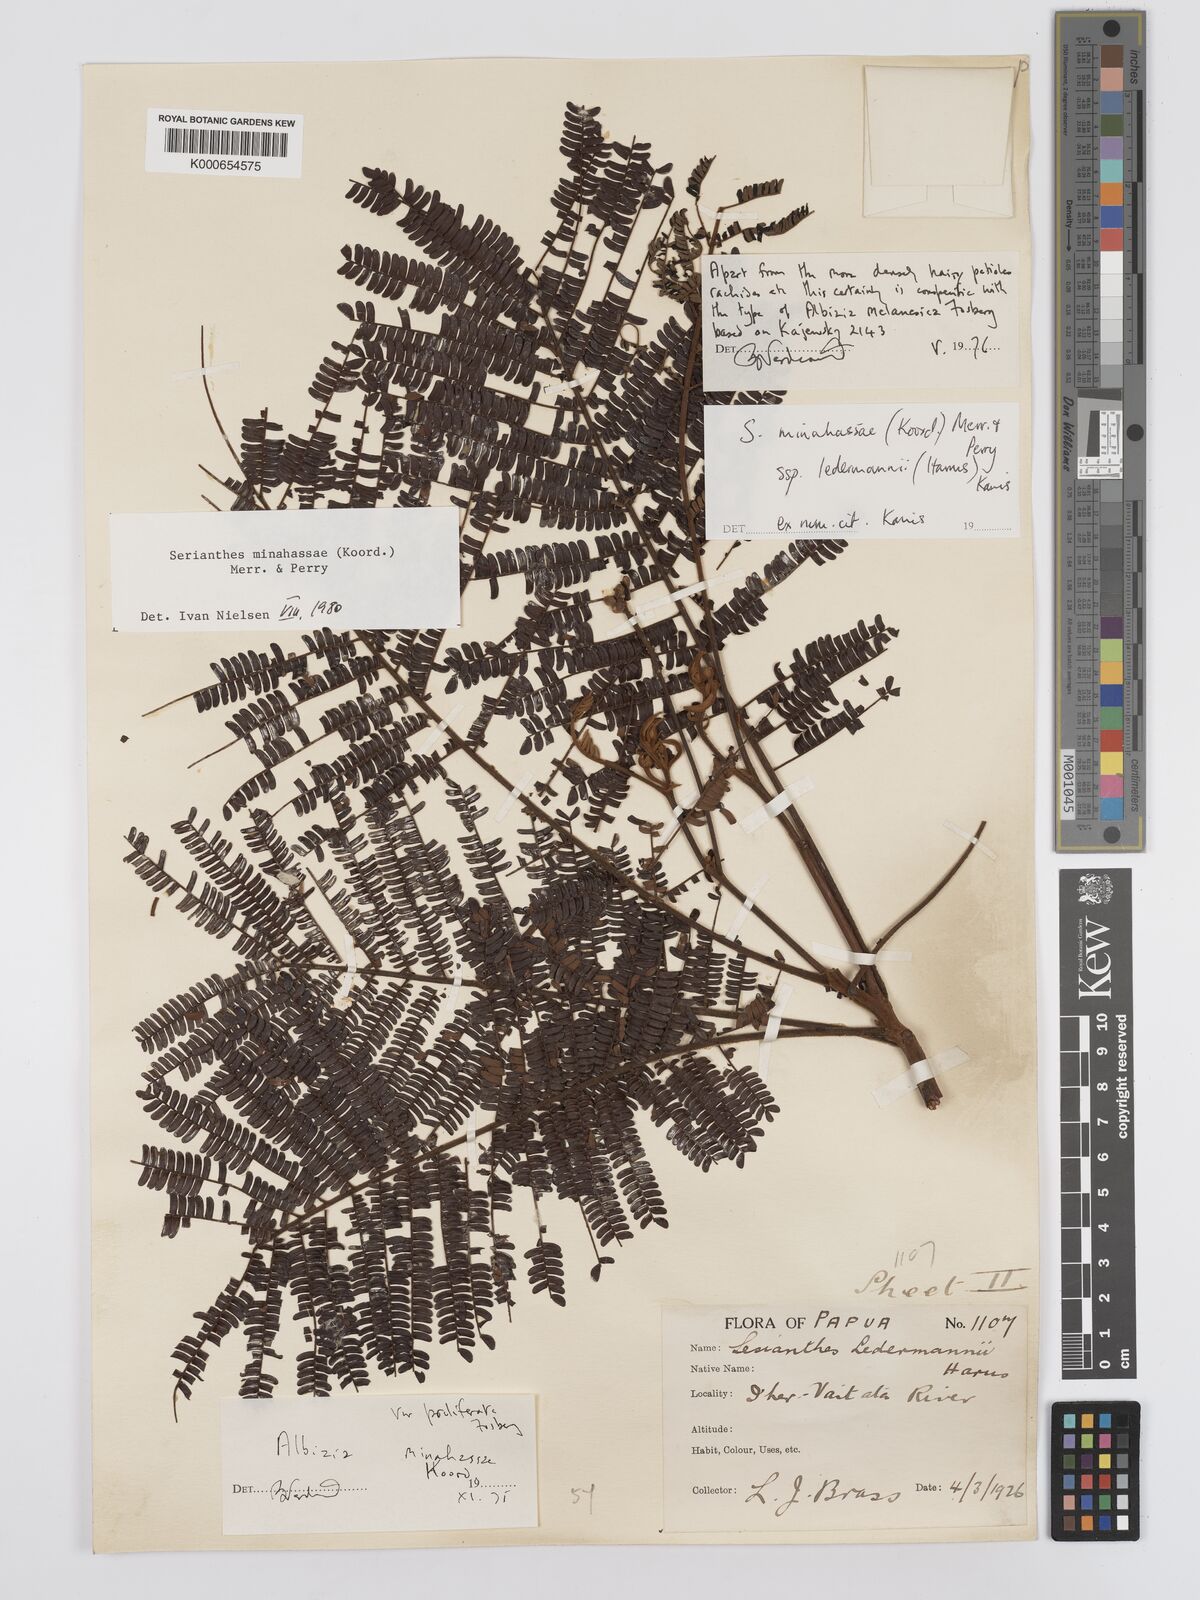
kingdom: Plantae
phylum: Tracheophyta
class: Magnoliopsida
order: Fabales
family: Fabaceae
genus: Serianthes
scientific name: Serianthes minahassae
